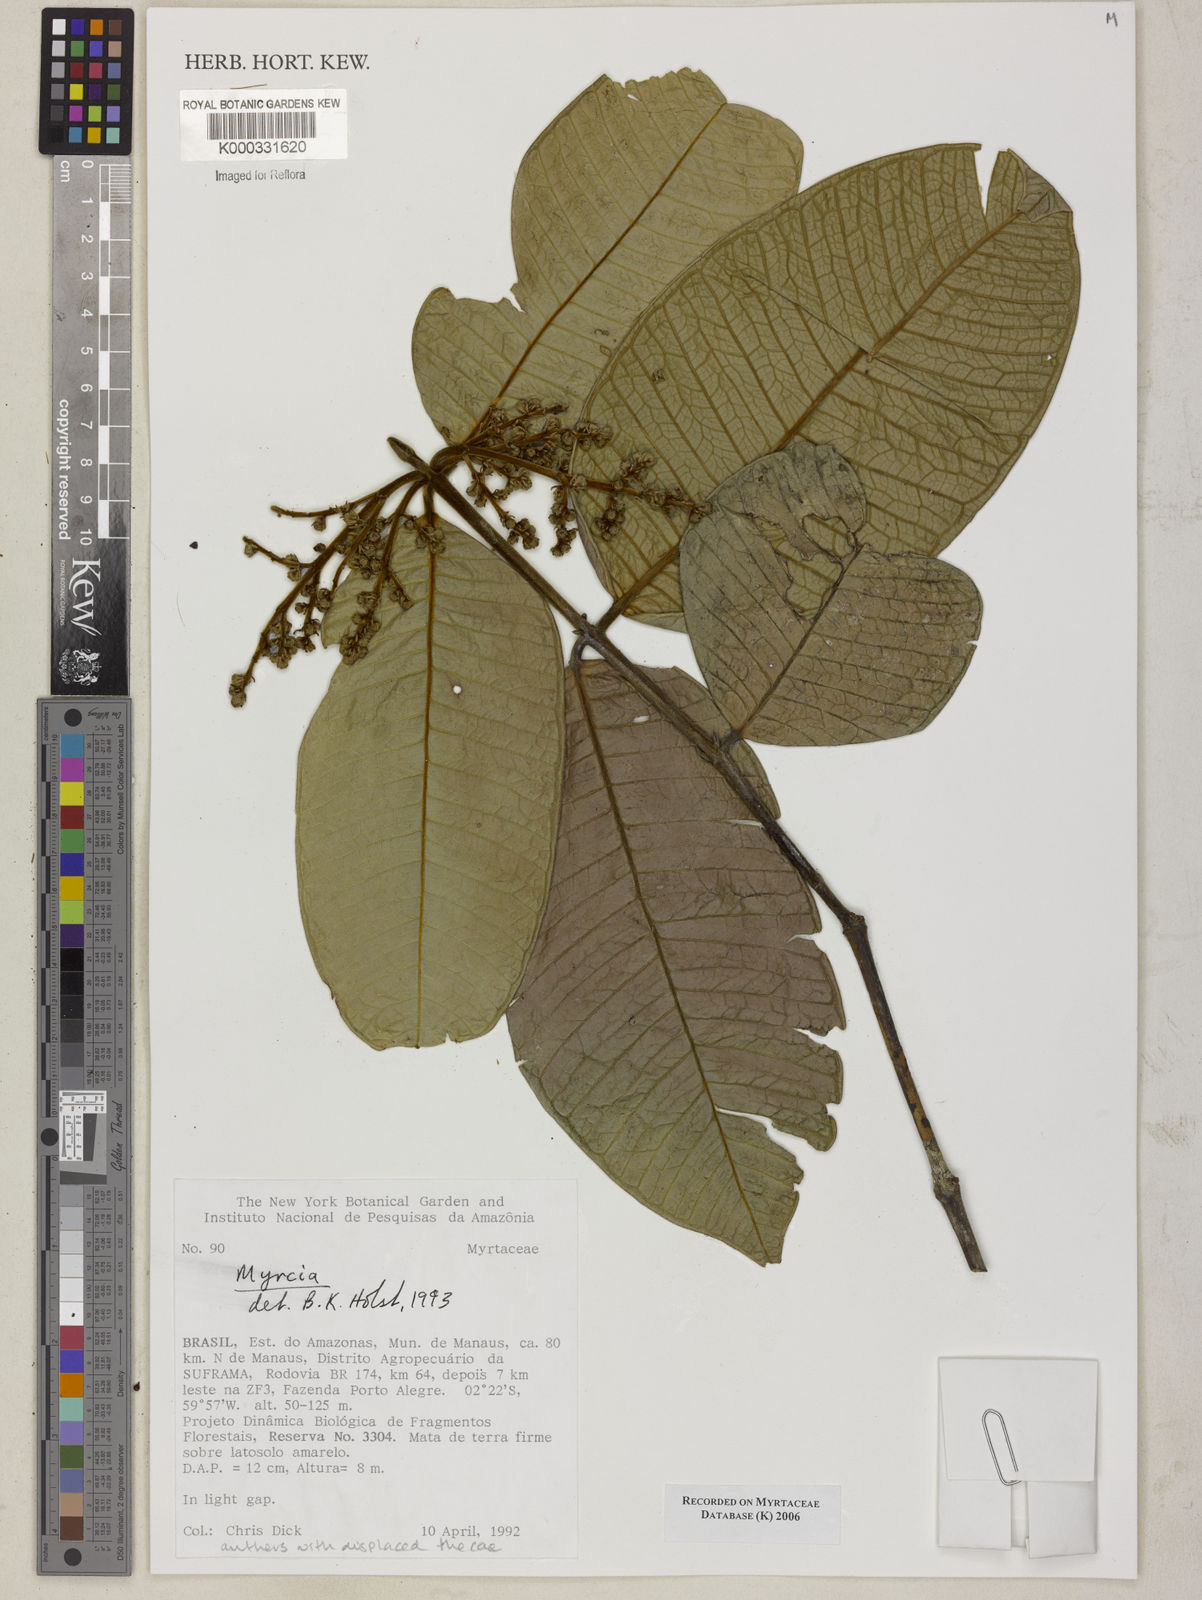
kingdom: Plantae
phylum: Tracheophyta
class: Magnoliopsida
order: Myrtales
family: Myrtaceae
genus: Myrcia
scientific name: Myrcia
